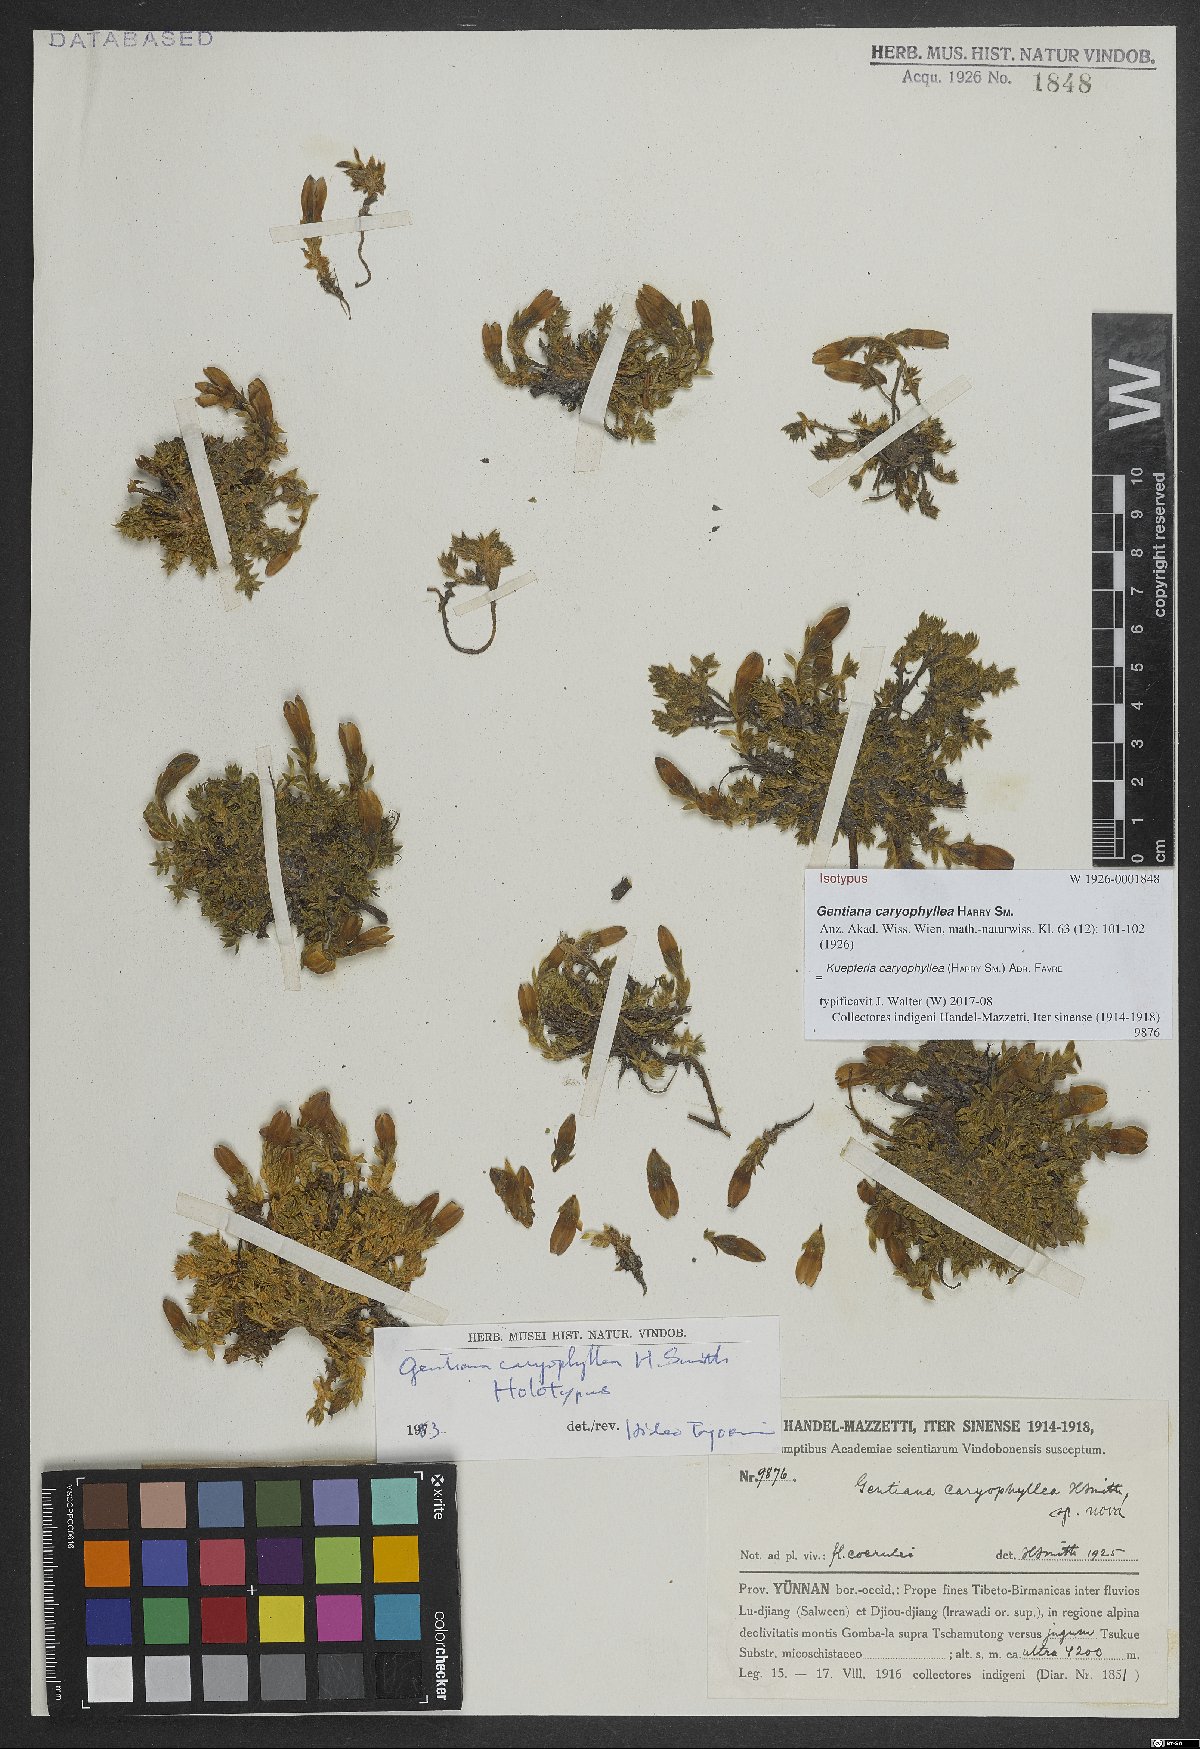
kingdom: Plantae
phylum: Tracheophyta
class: Magnoliopsida
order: Gentianales
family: Gentianaceae
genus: Kuepferia
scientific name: Kuepferia caryophyllea
